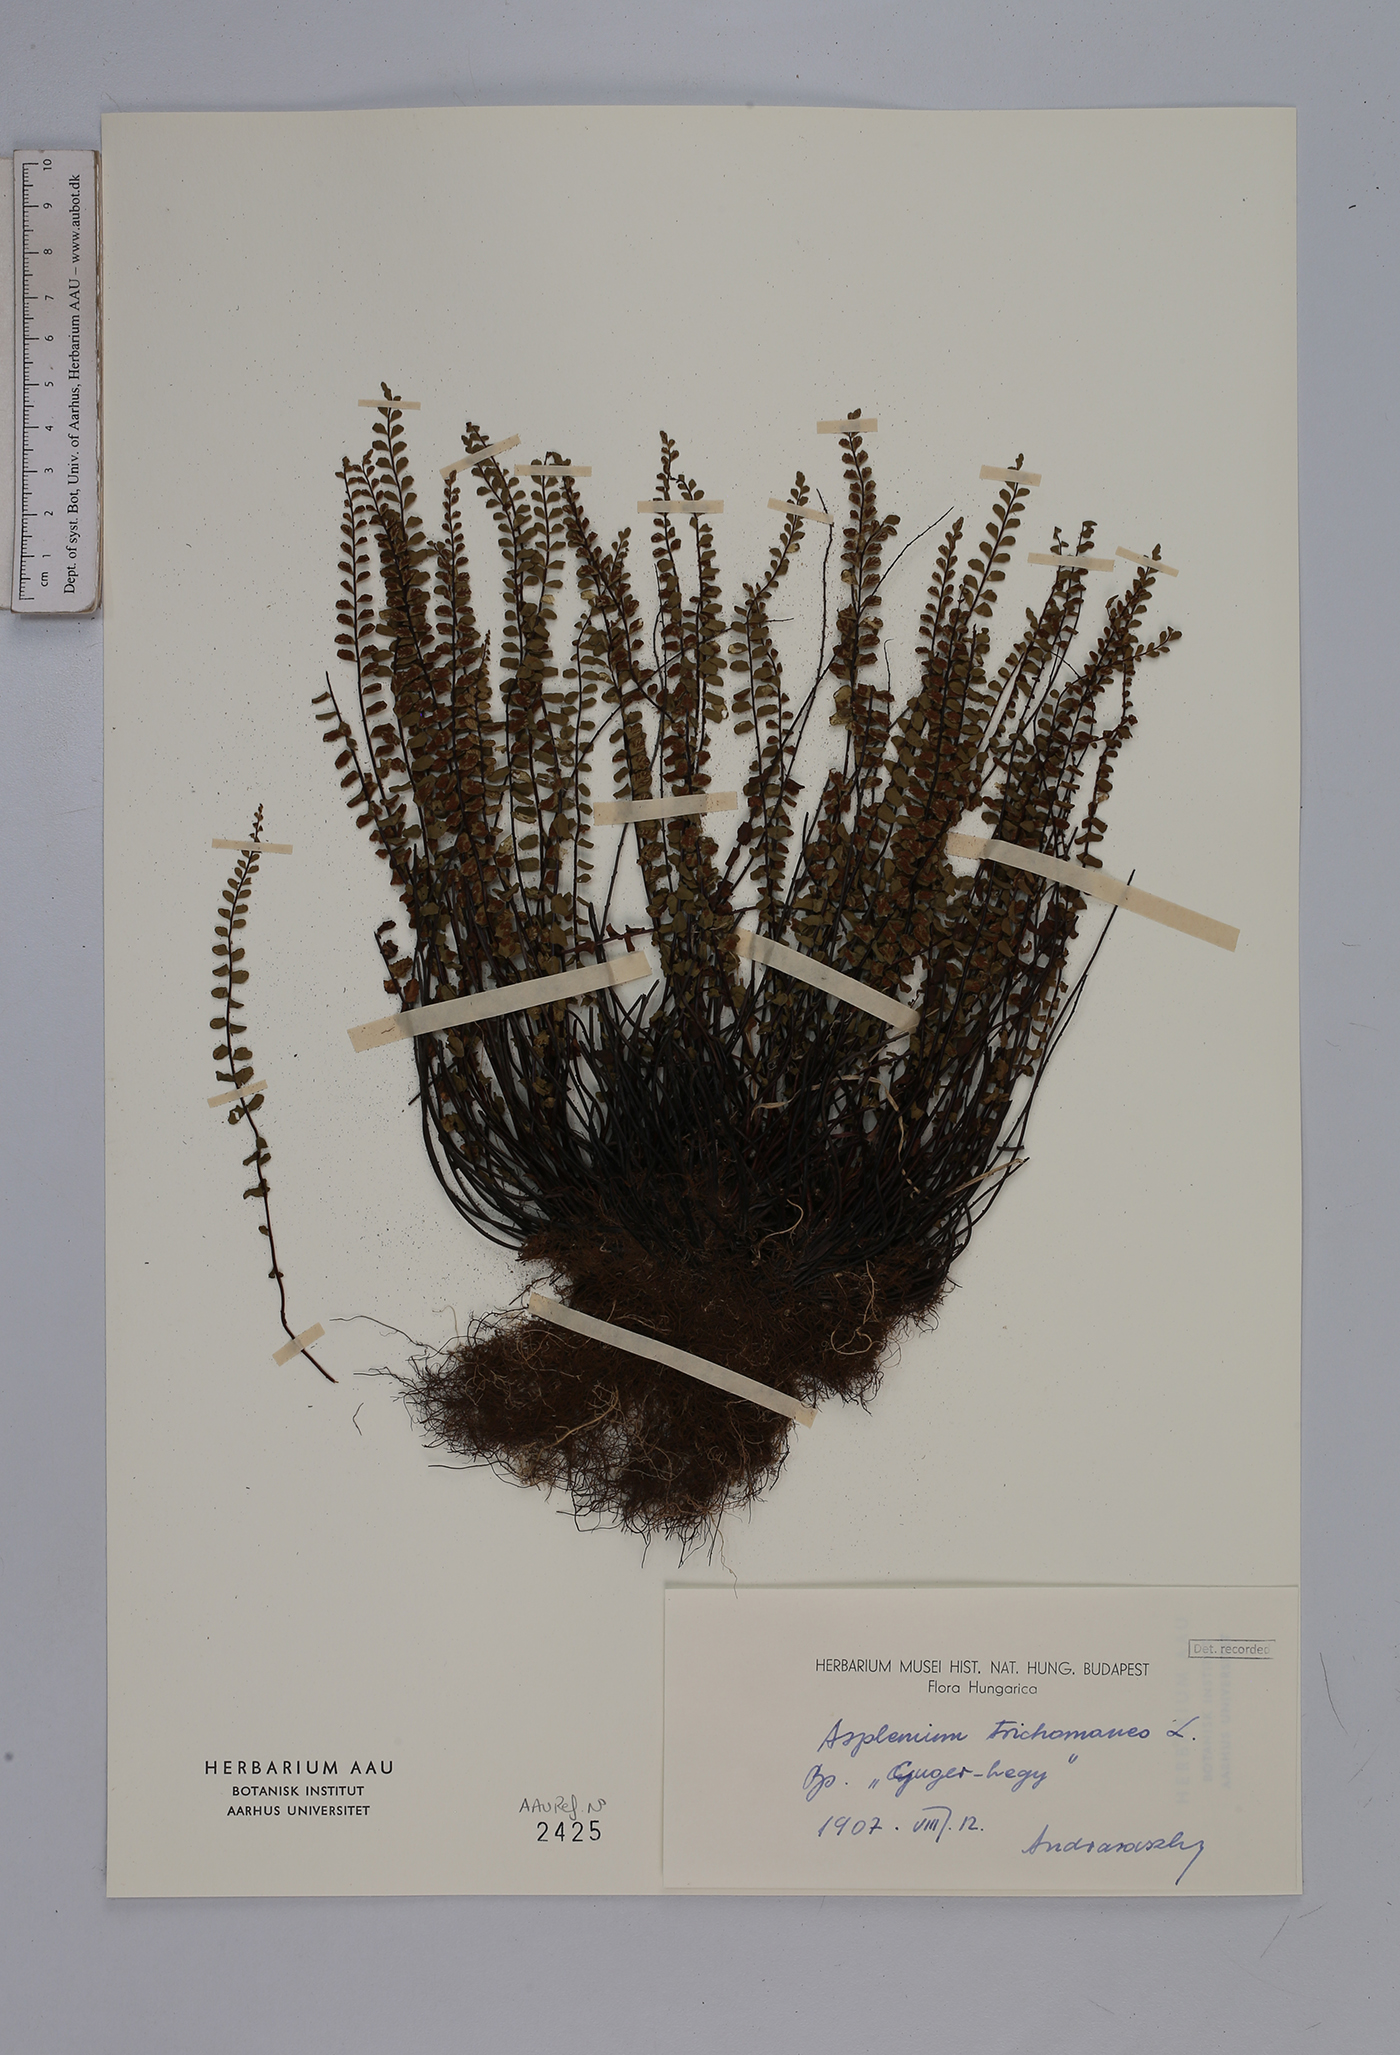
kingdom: Plantae
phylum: Tracheophyta
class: Polypodiopsida
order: Polypodiales
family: Aspleniaceae
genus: Asplenium
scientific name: Asplenium trichomanes
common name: Maidenhair spleenwort
